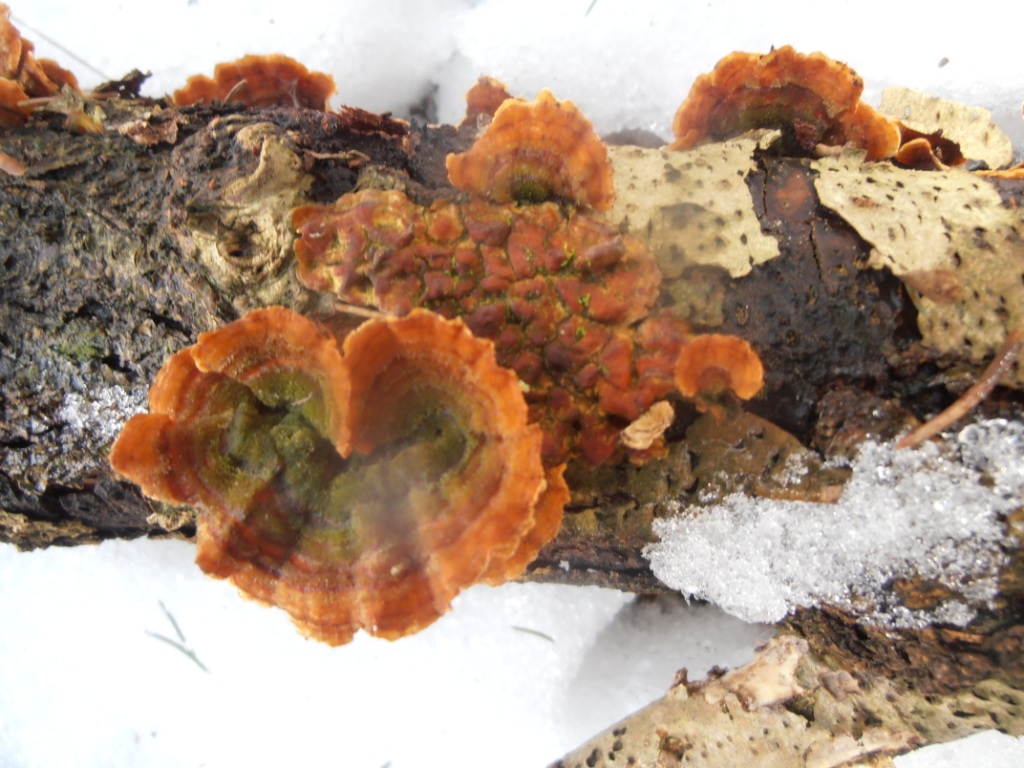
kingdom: Fungi
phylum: Basidiomycota
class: Agaricomycetes
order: Russulales
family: Stereaceae
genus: Stereum
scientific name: Stereum subtomentosum
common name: smuk lædersvamp
